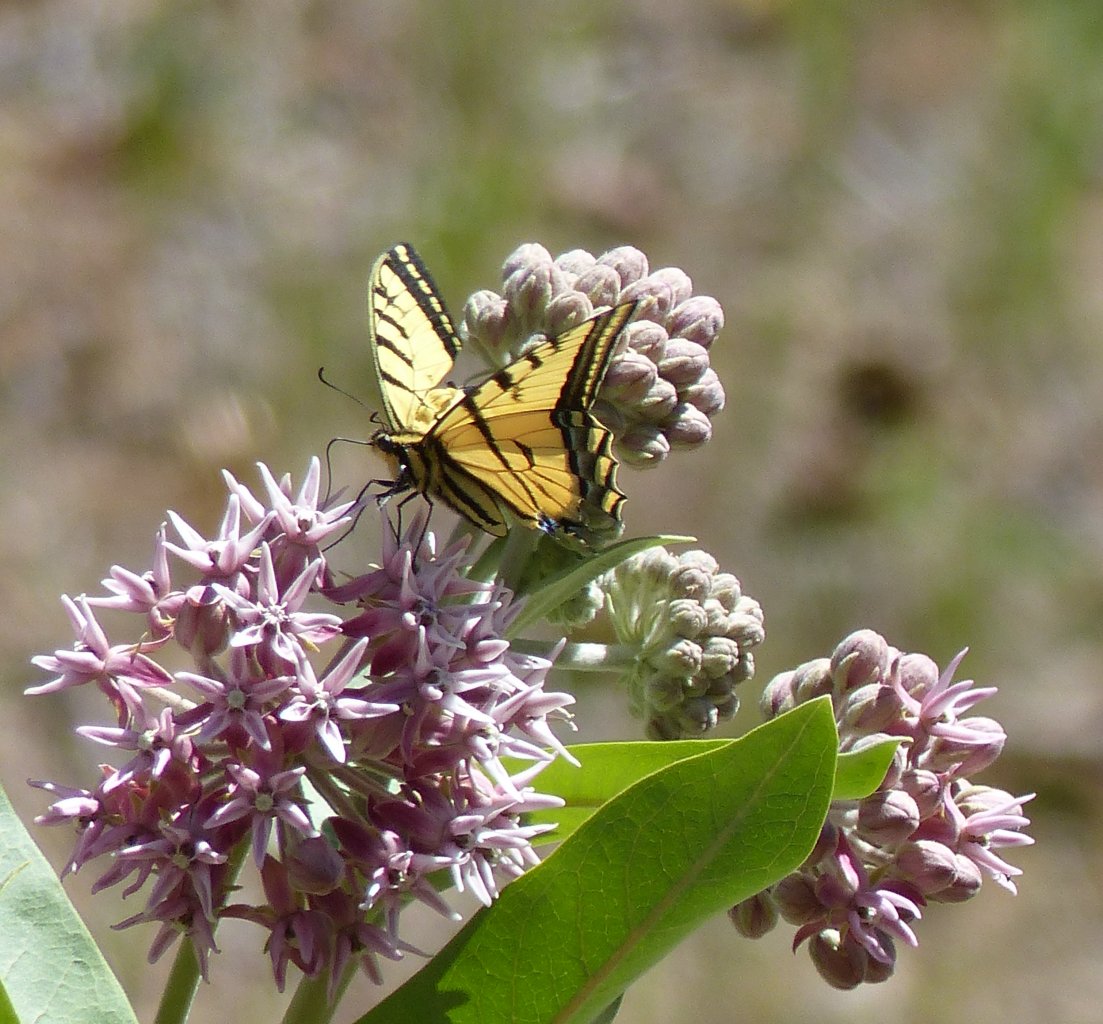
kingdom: Animalia
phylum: Arthropoda
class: Insecta
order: Lepidoptera
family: Papilionidae
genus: Papilio
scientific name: Papilio multicaudata
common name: Two-tailed Swallowtail
